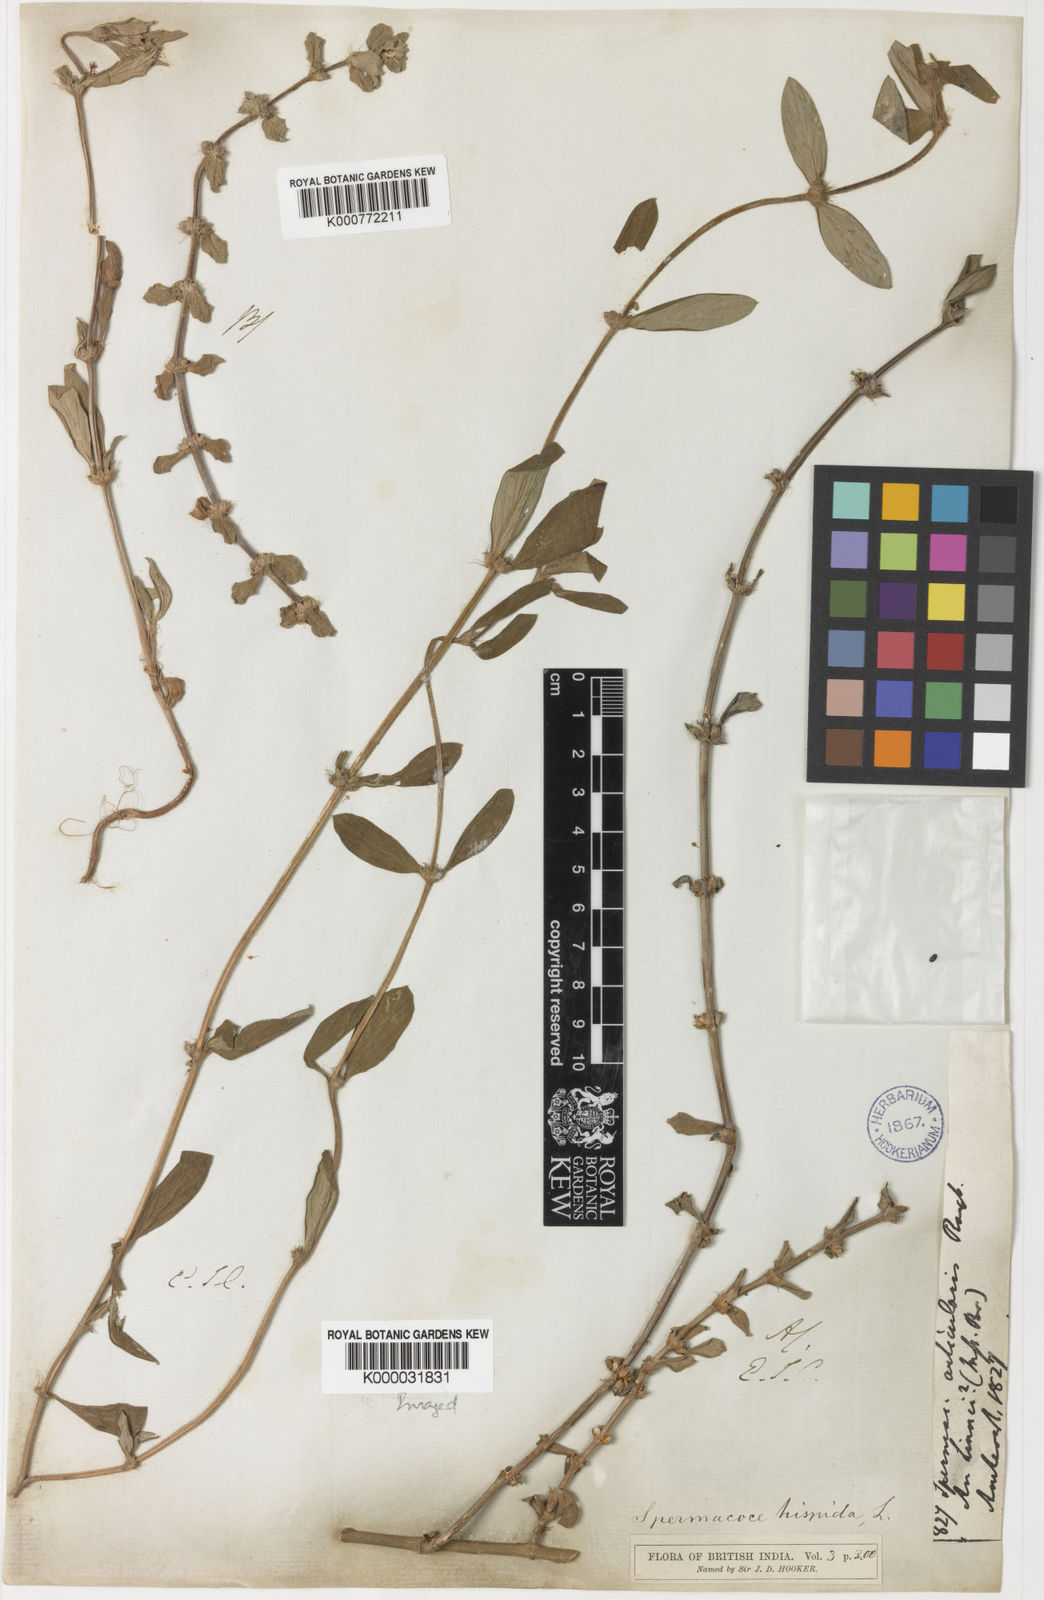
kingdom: Plantae
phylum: Tracheophyta
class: Magnoliopsida
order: Gentianales
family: Rubiaceae
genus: Spermacoce
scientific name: Spermacoce articularis
